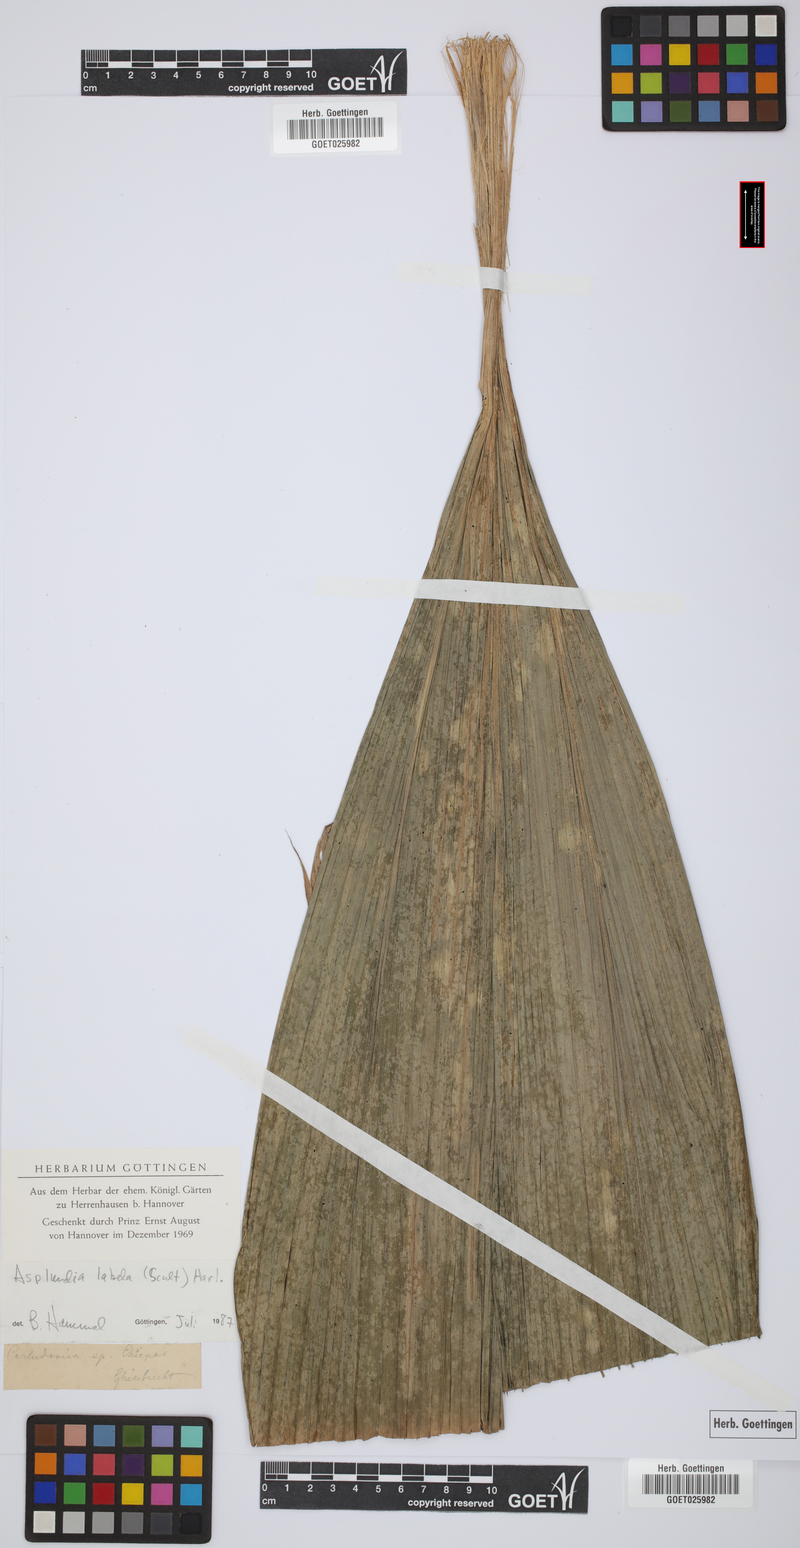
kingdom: Plantae
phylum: Tracheophyta
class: Liliopsida
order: Pandanales
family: Cyclanthaceae
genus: Asplundia
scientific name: Asplundia labela
